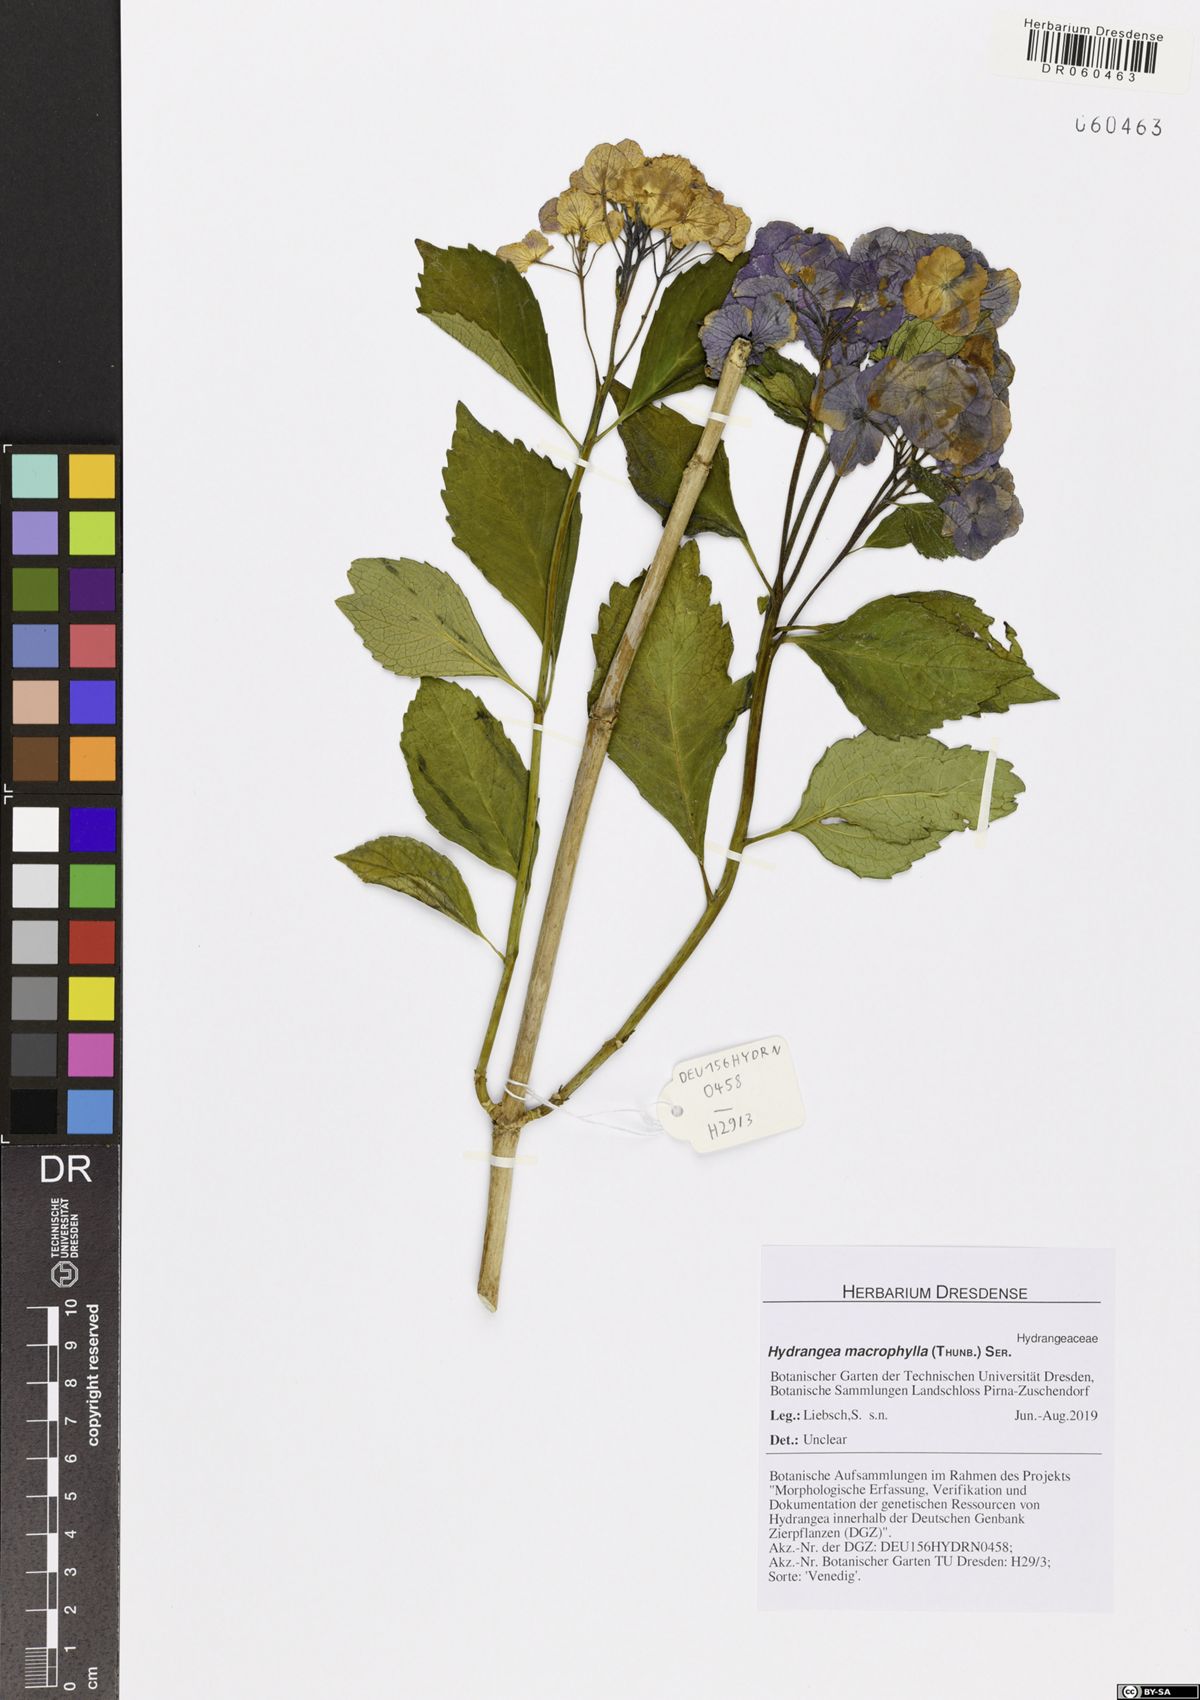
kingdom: Plantae
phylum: Tracheophyta
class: Magnoliopsida
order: Cornales
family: Hydrangeaceae
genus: Hydrangea
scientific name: Hydrangea macrophylla
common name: Hydrangea
